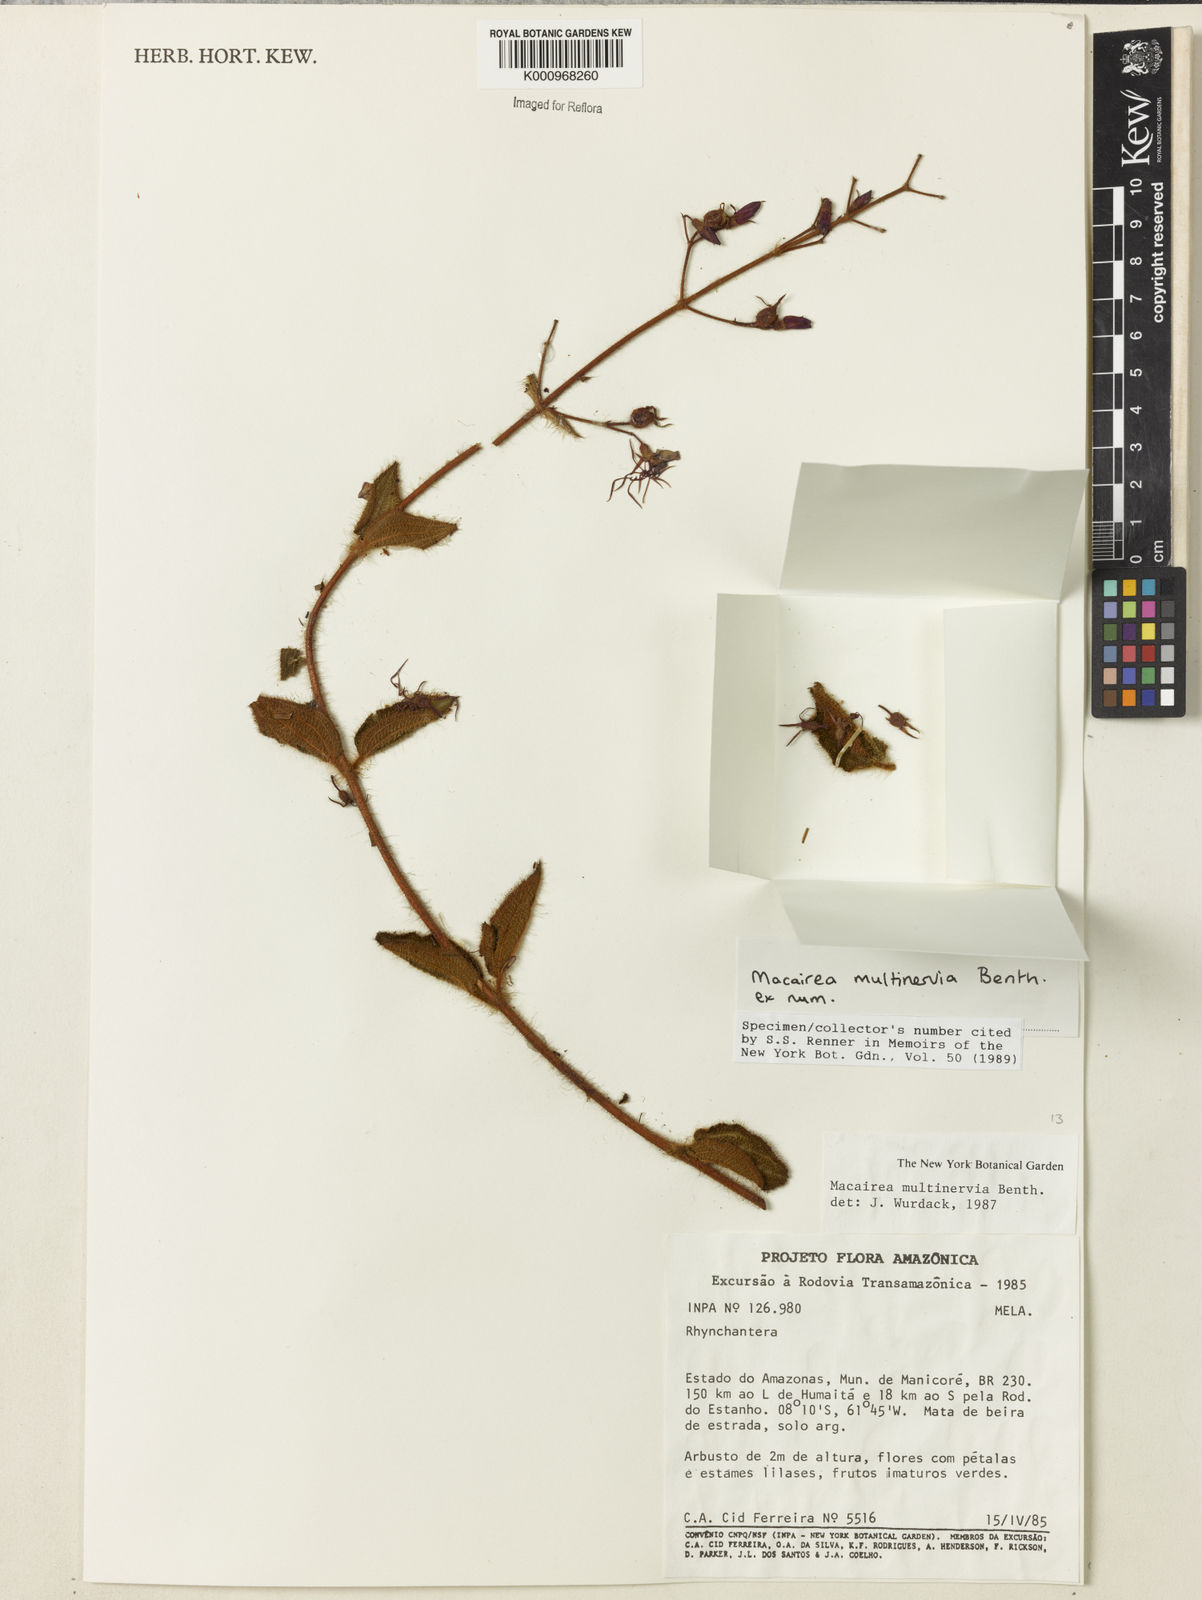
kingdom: Plantae
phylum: Tracheophyta
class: Magnoliopsida
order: Myrtales
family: Melastomataceae
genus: Macairea
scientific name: Macairea multinervia
